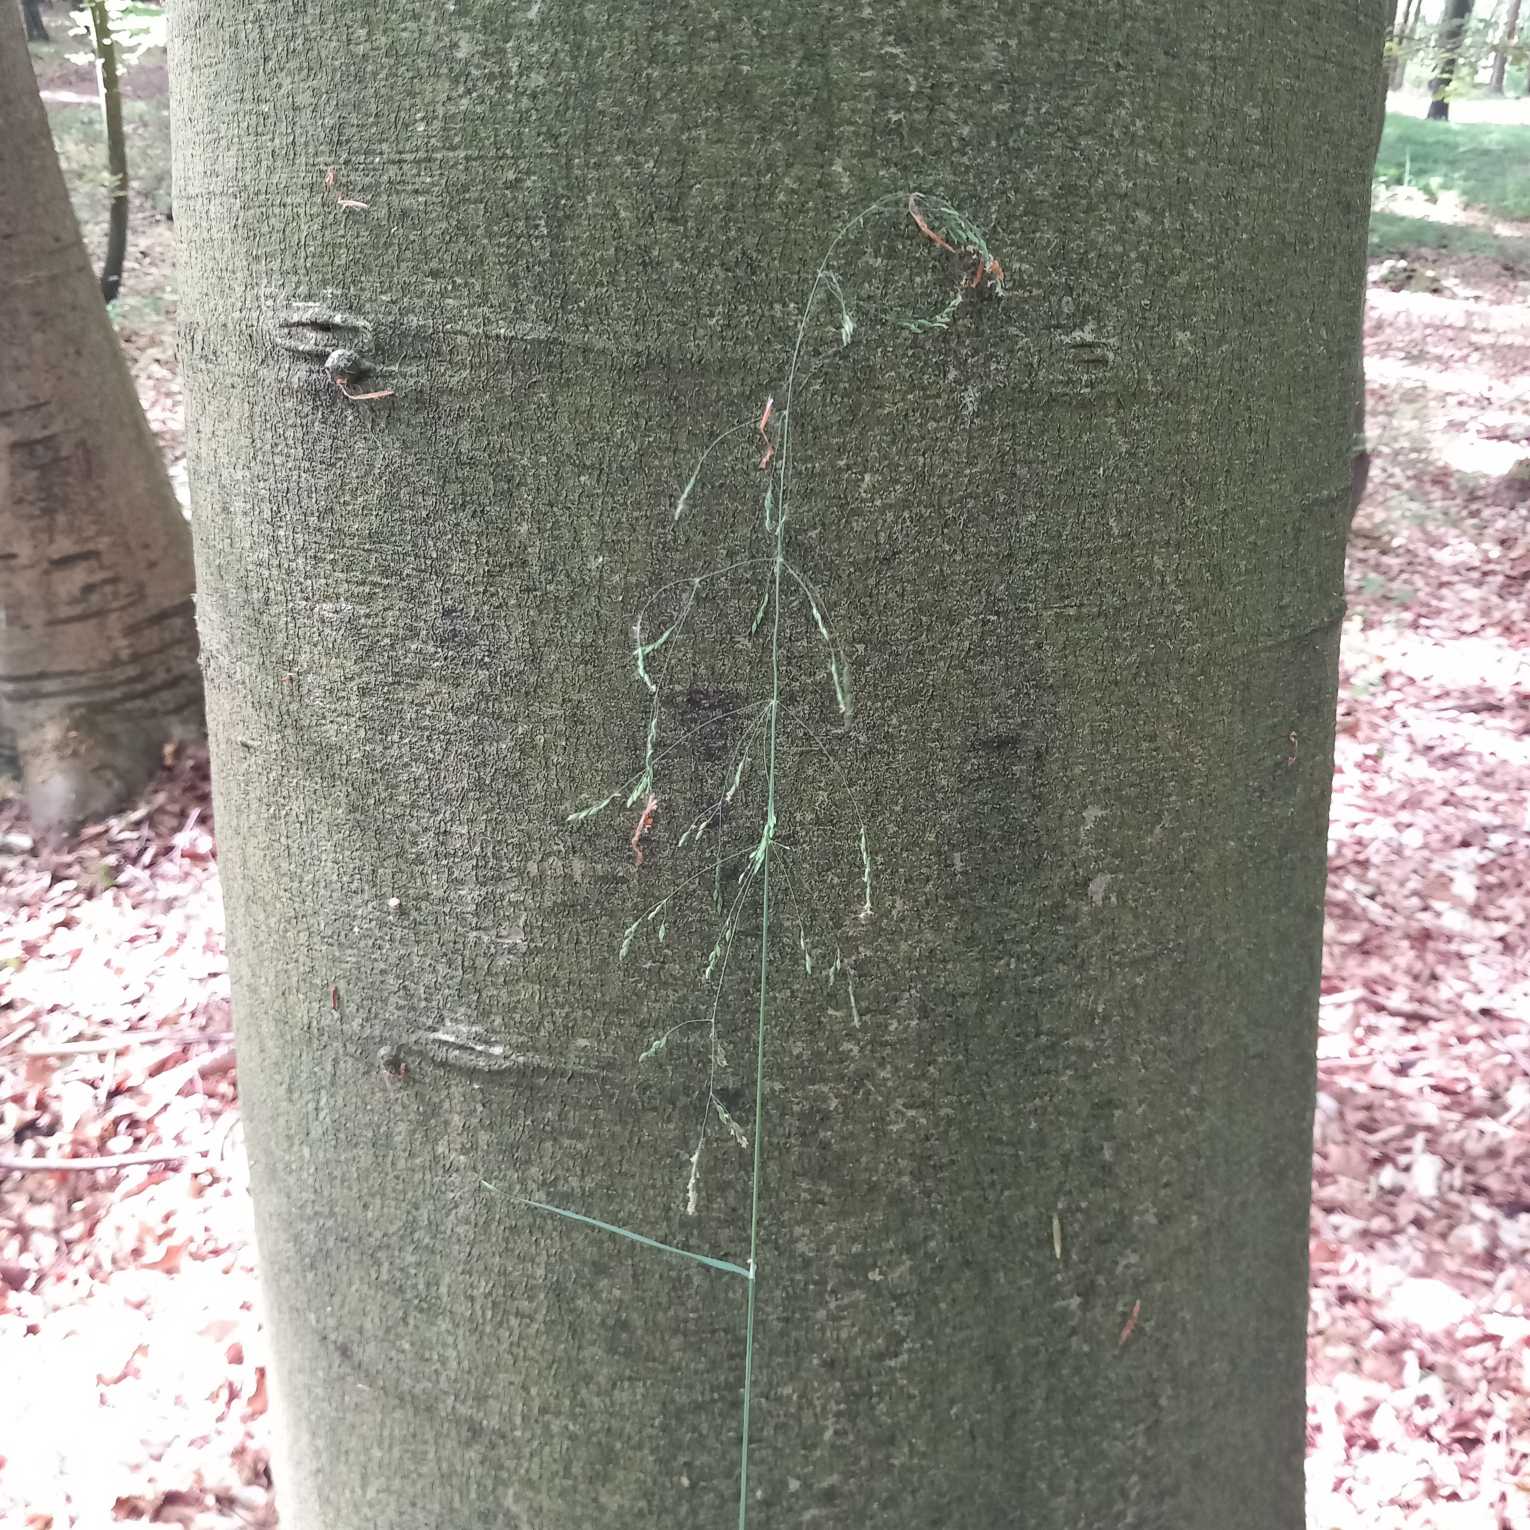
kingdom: Plantae
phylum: Tracheophyta
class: Liliopsida
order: Poales
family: Poaceae
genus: Milium
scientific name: Milium effusum
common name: Miliegræs
